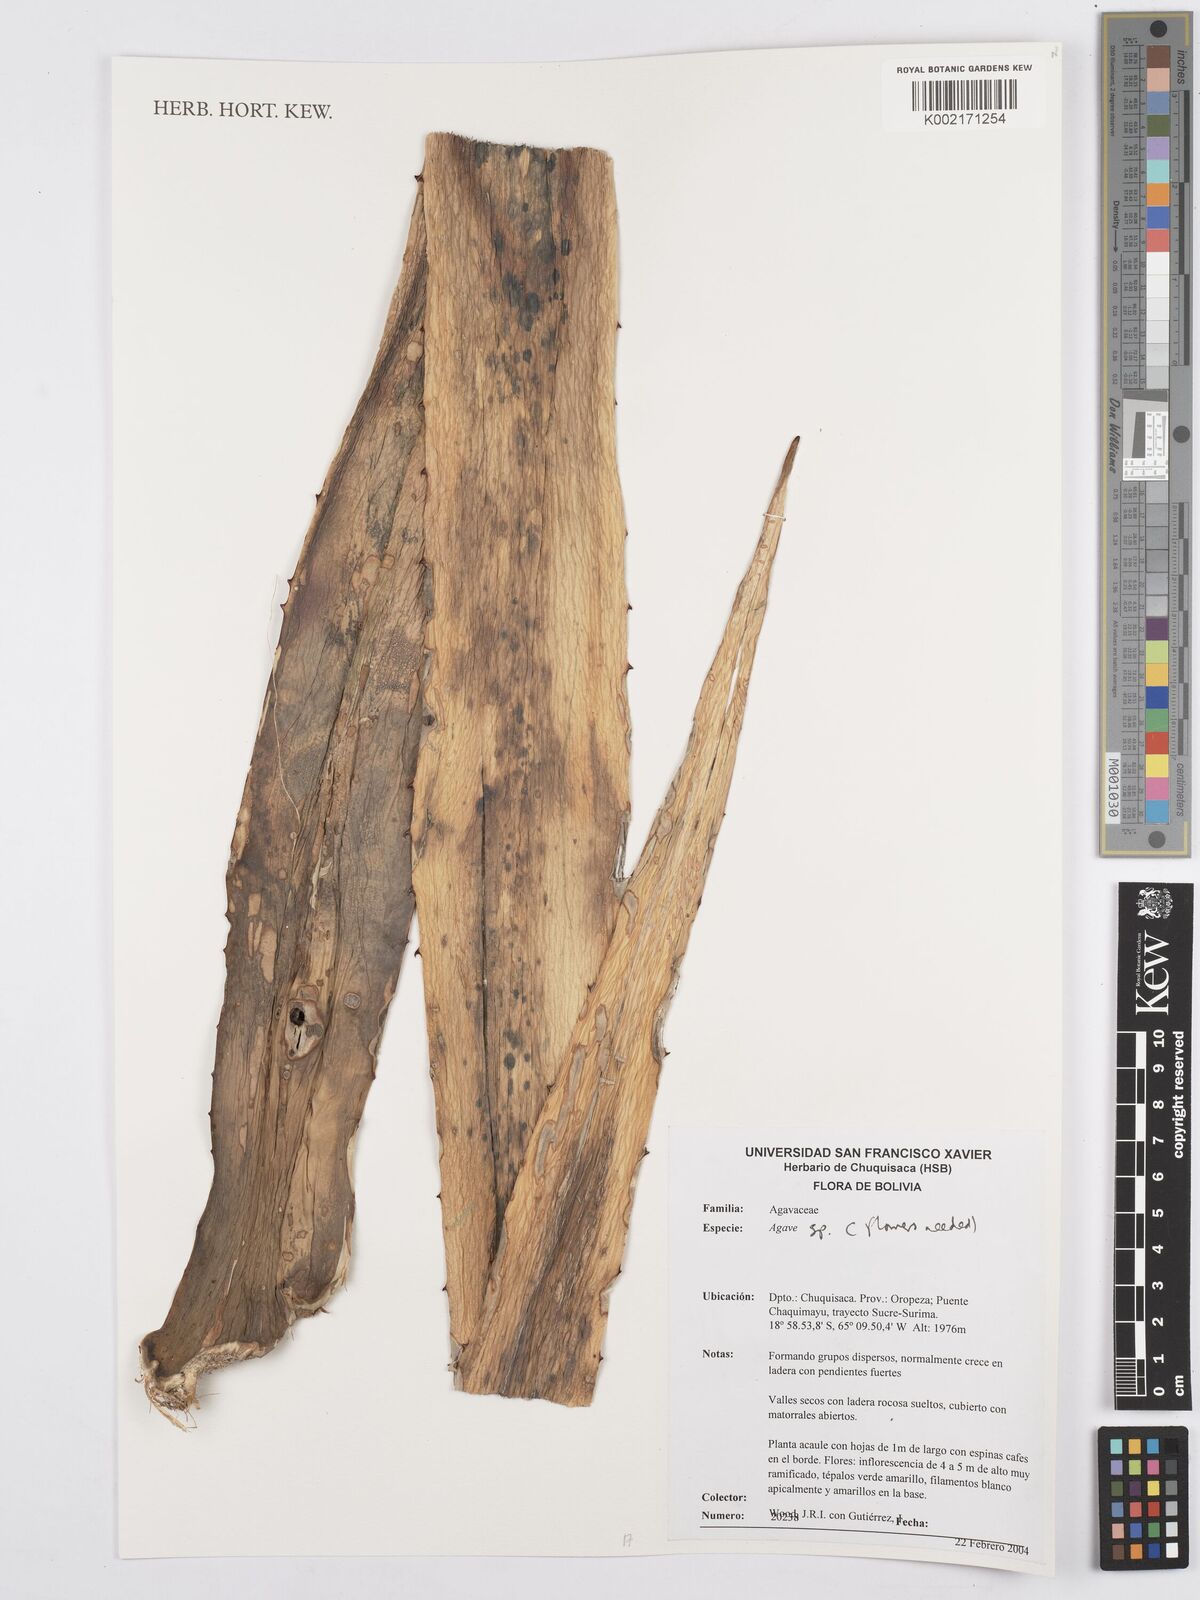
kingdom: Plantae
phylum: Tracheophyta
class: Liliopsida
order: Asparagales
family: Asparagaceae
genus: Agave
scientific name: Agave
